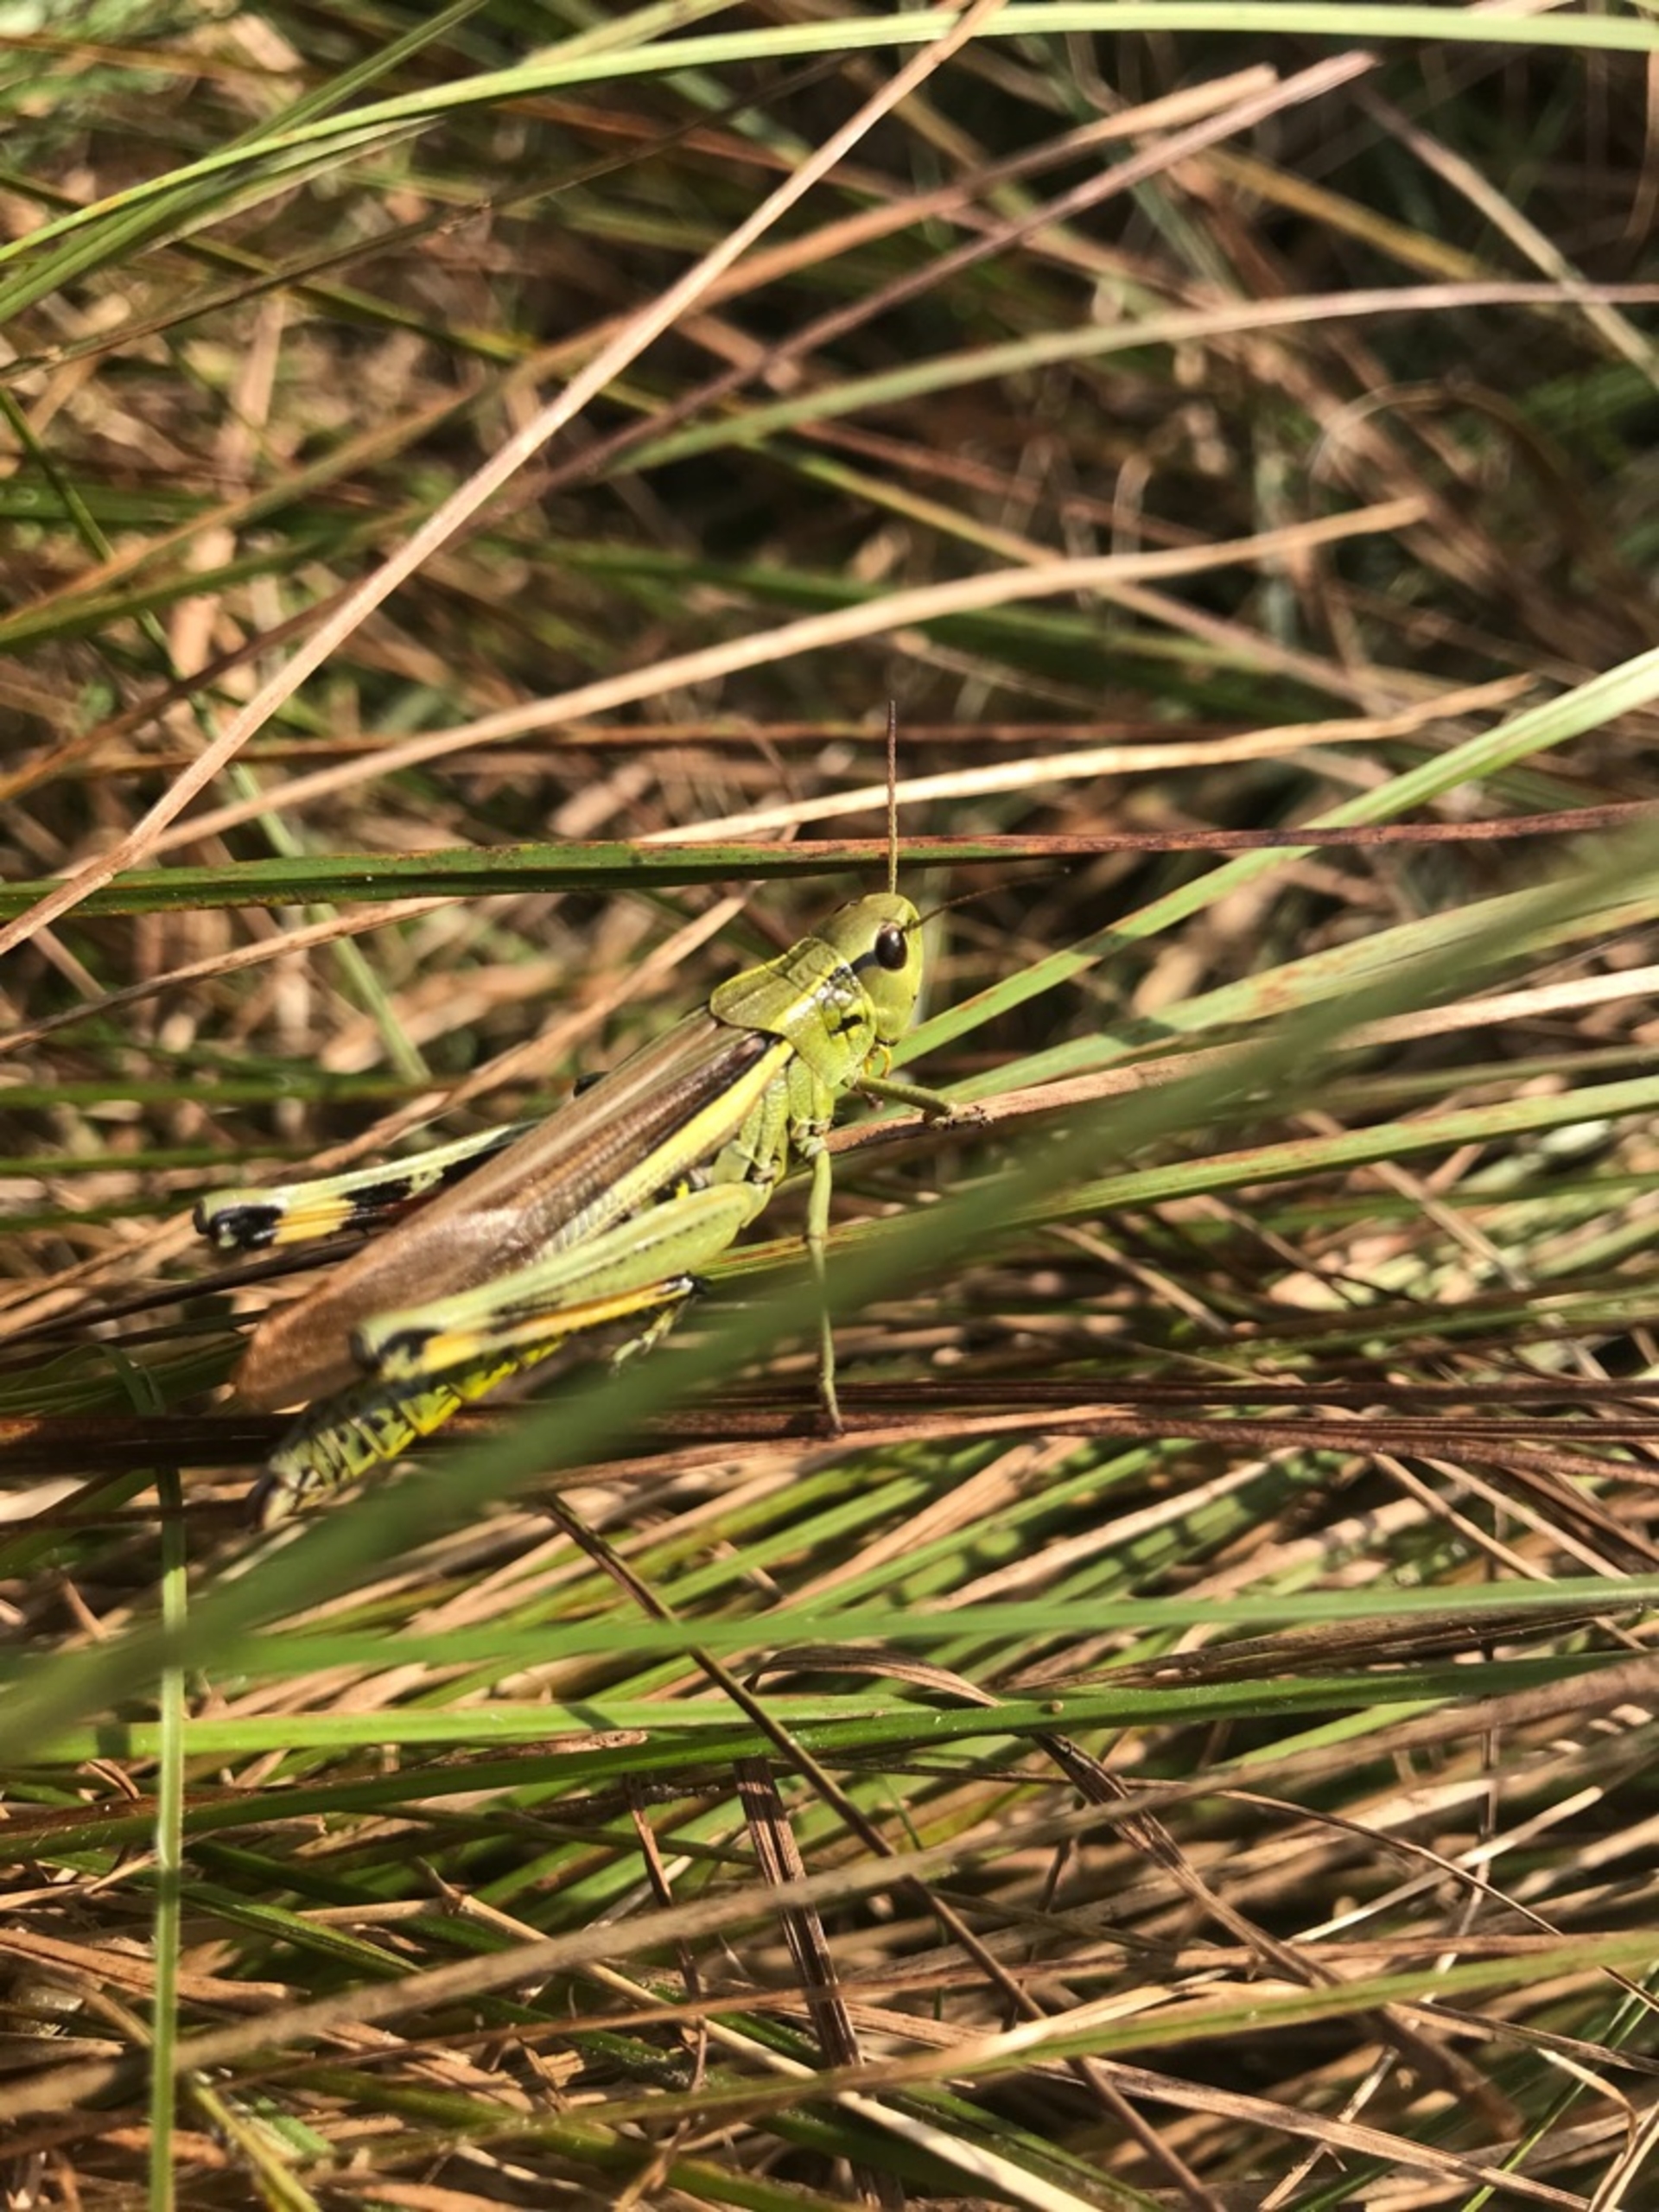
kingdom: Animalia
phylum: Arthropoda
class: Insecta
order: Orthoptera
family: Acrididae
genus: Stethophyma
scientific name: Stethophyma grossum
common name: Sumpgræshoppe
